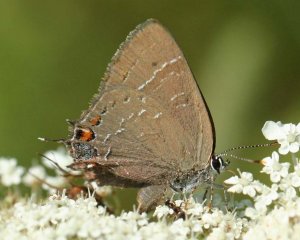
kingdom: Animalia
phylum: Arthropoda
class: Insecta
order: Lepidoptera
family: Lycaenidae
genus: Satyrium
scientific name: Satyrium calanus
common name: Banded Hairstreak
